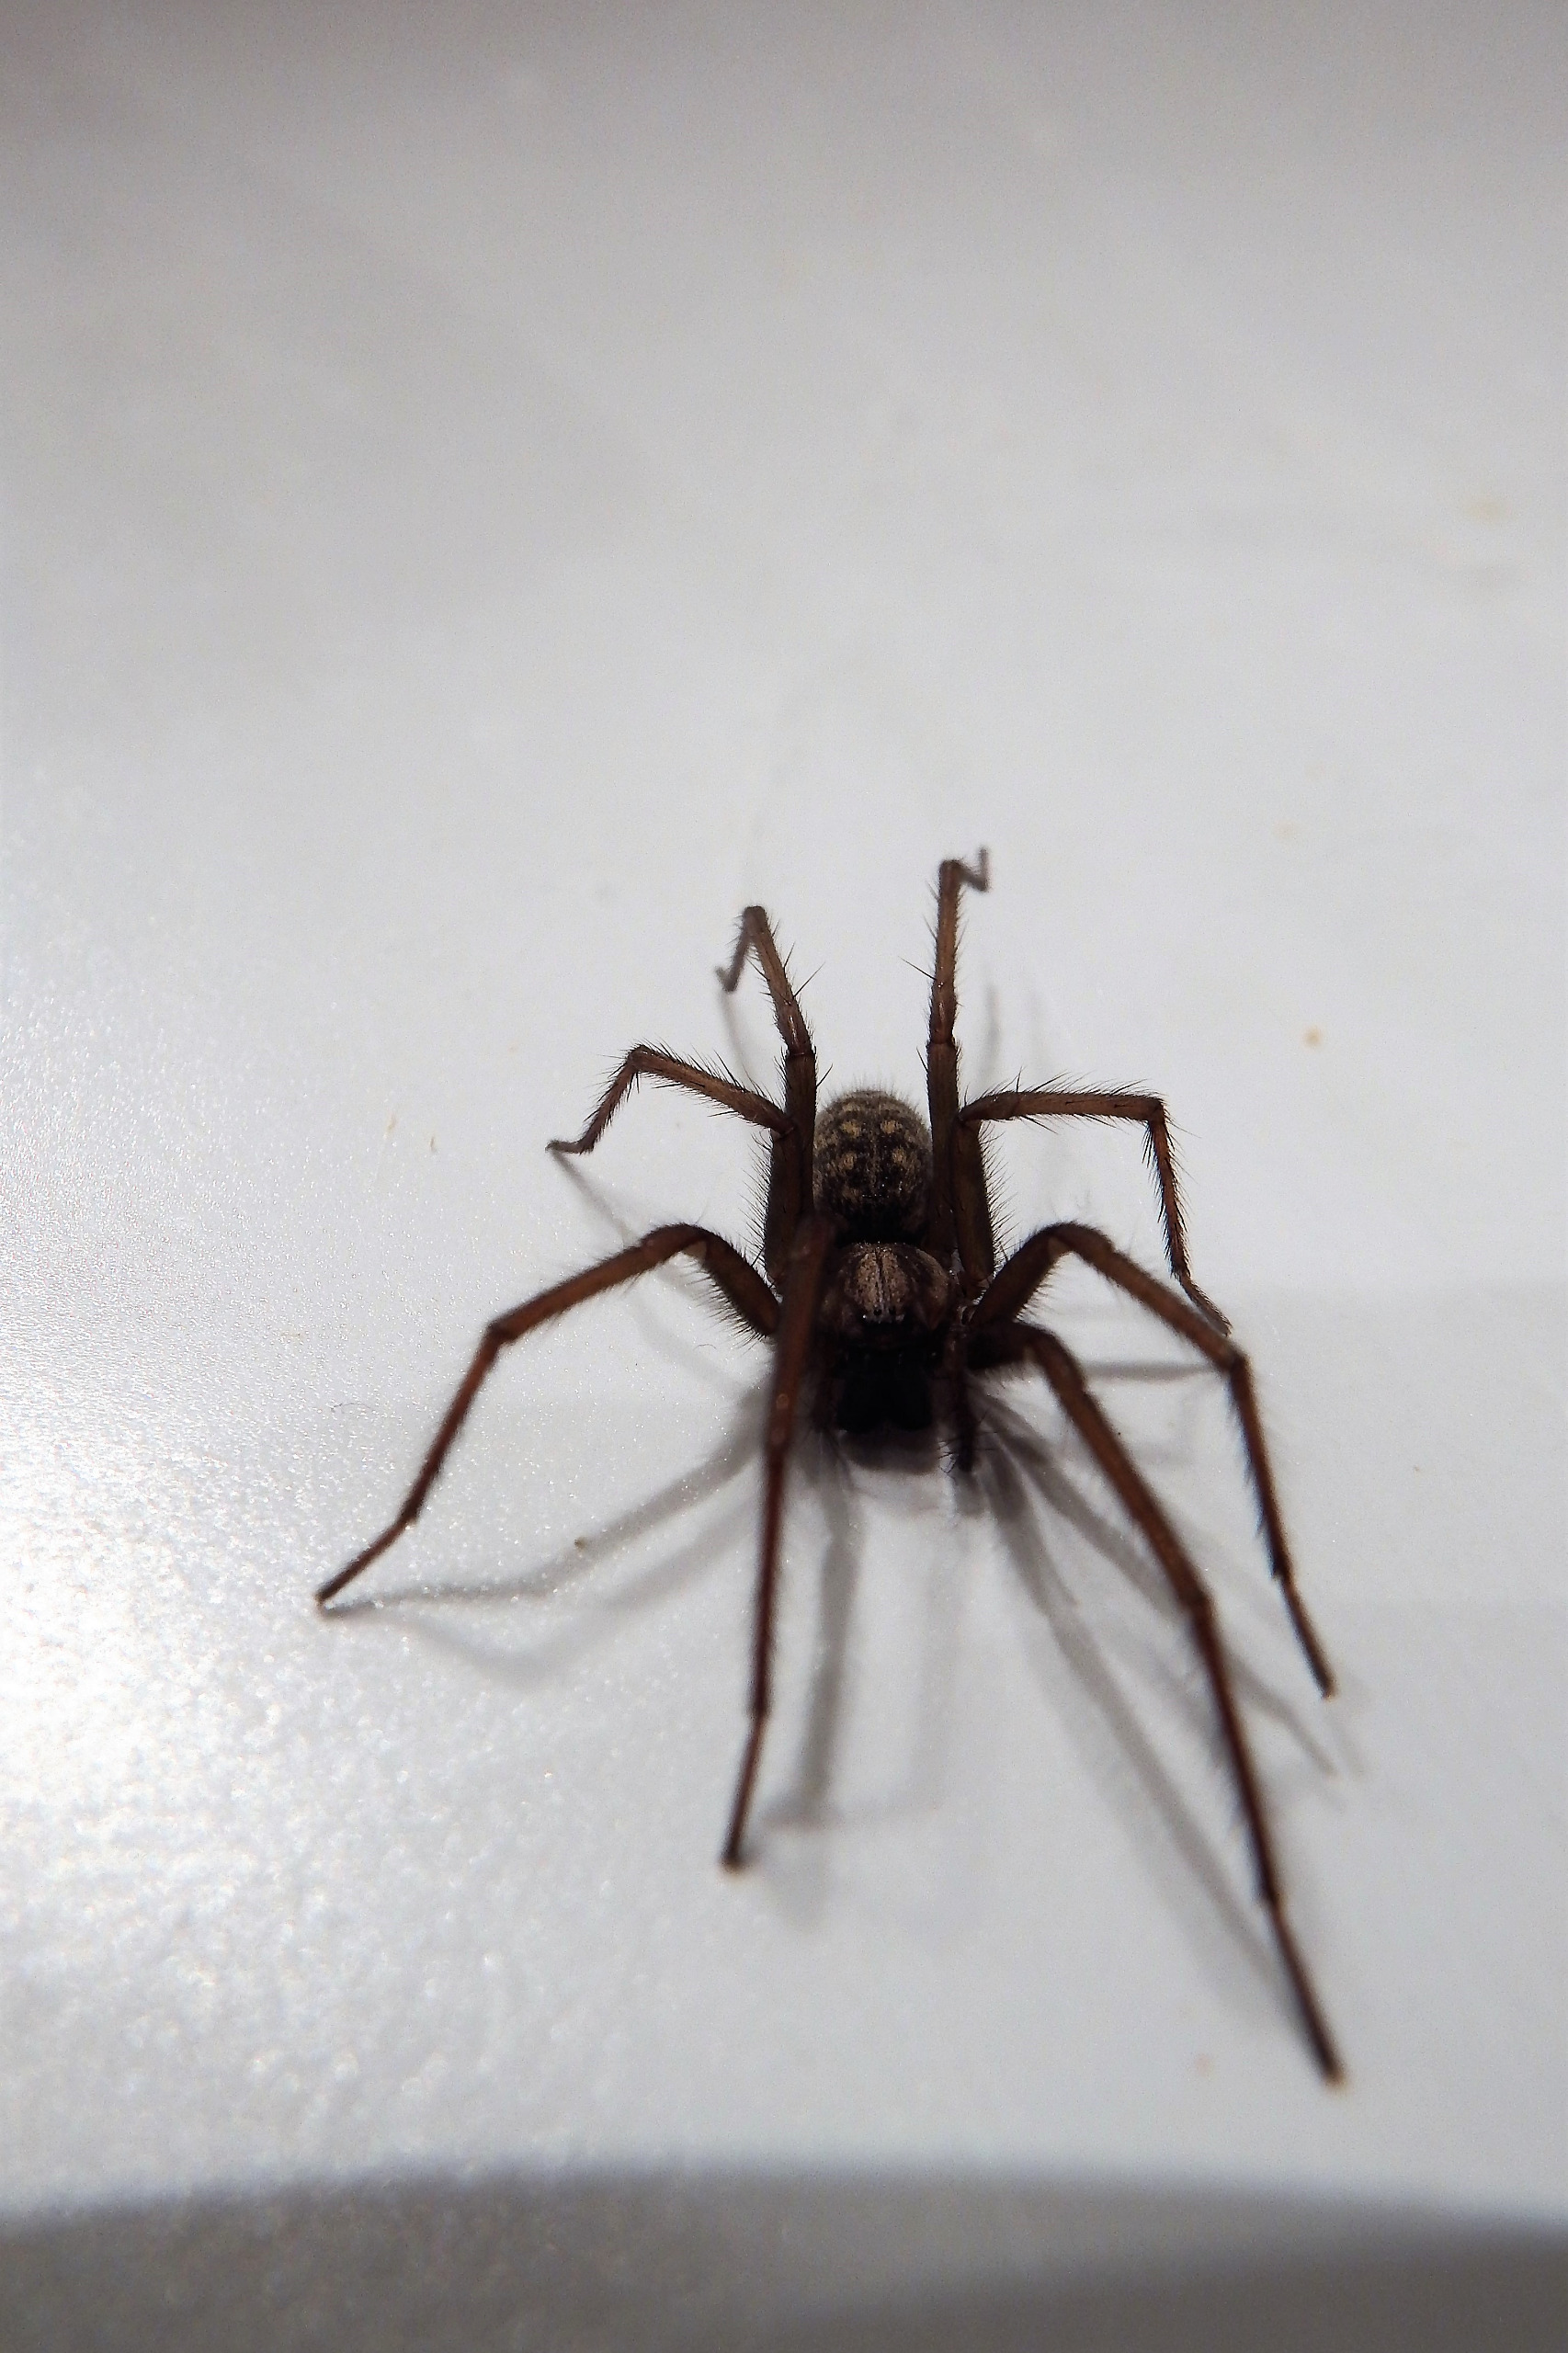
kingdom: Animalia
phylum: Arthropoda
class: Arachnida
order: Araneae
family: Agelenidae
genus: Eratigena
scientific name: Eratigena atrica
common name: Stor husedderkop
